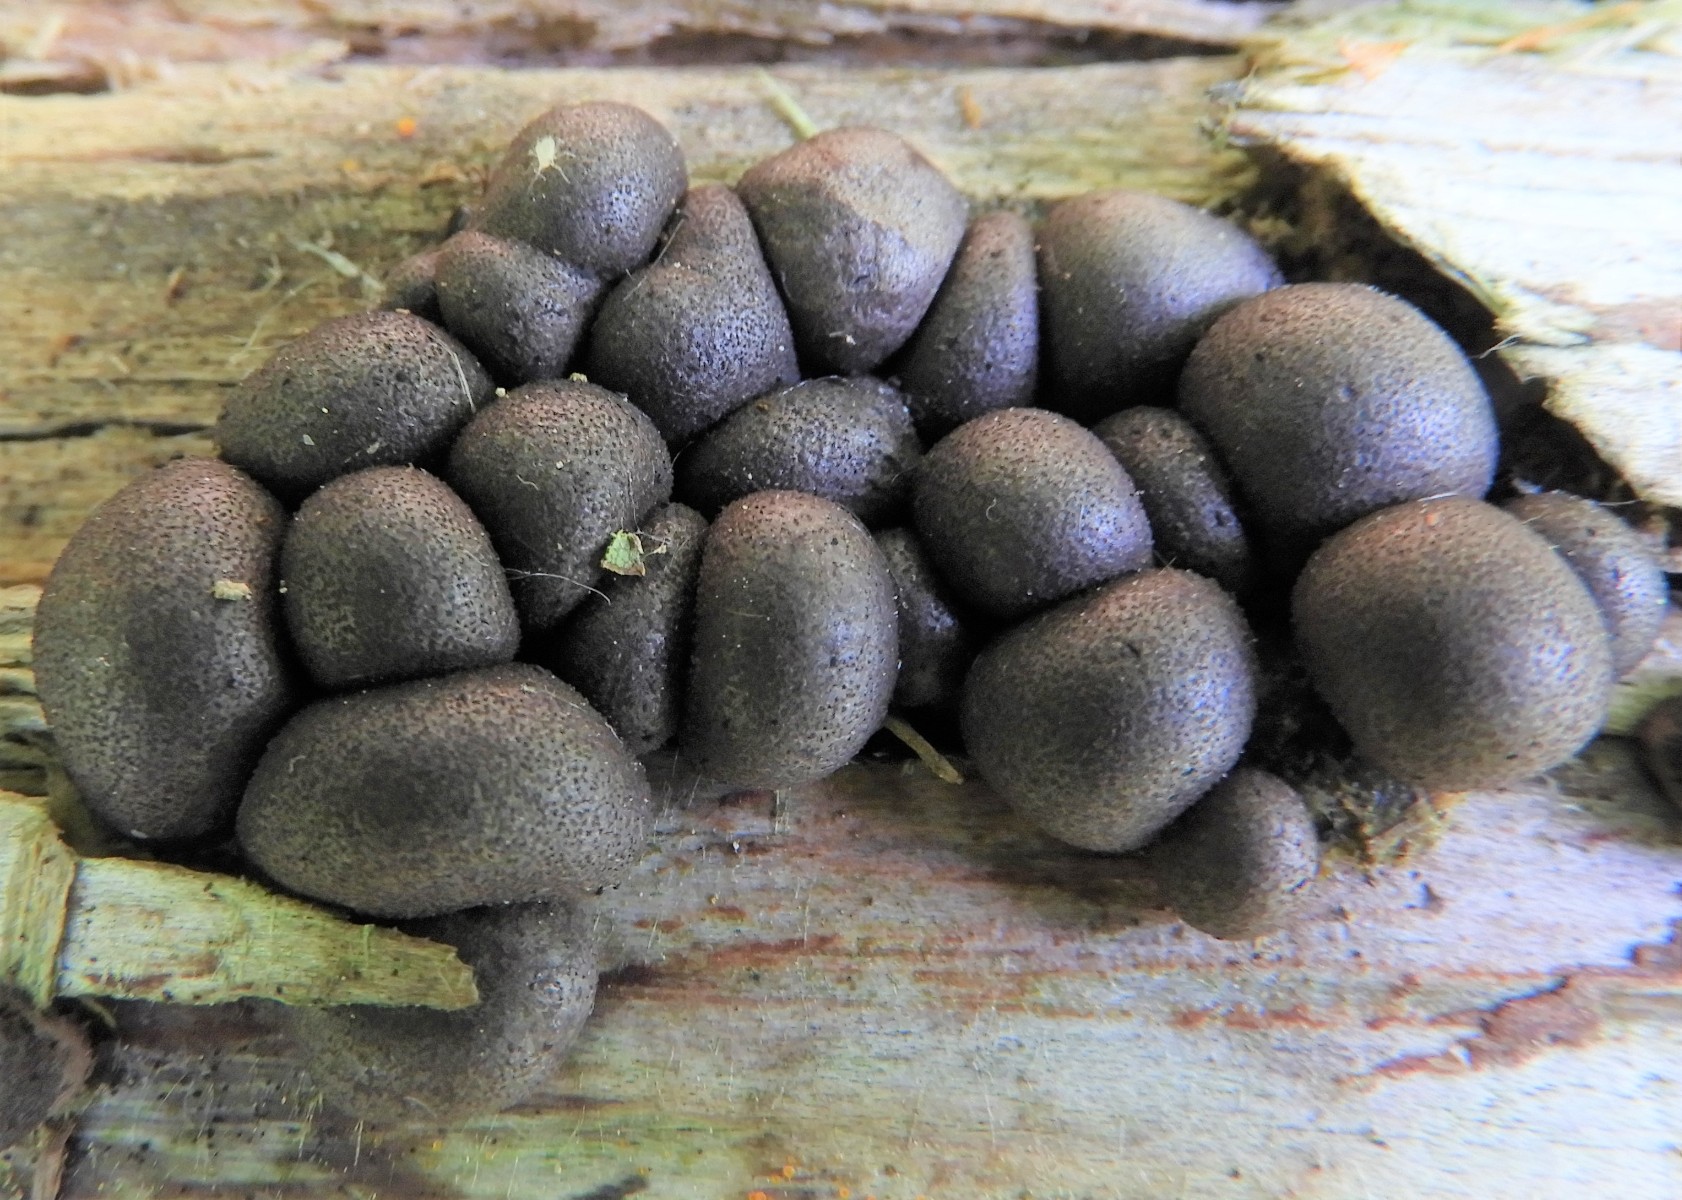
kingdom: Protozoa
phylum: Mycetozoa
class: Myxomycetes
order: Cribrariales
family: Tubiferaceae
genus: Lycogala
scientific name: Lycogala epidendrum
